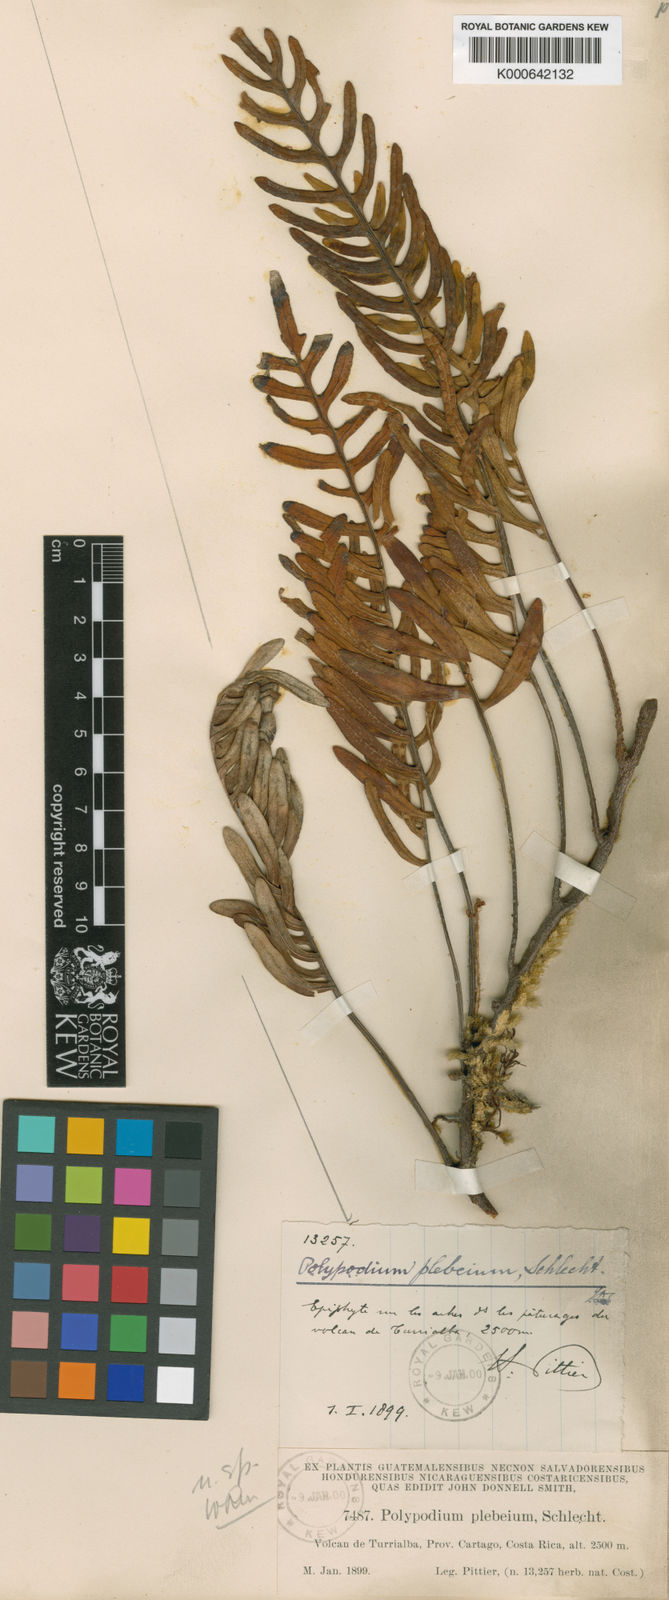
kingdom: Plantae
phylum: Tracheophyta
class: Polypodiopsida
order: Polypodiales
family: Polypodiaceae
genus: Serpocaulon
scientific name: Serpocaulon wagneri
